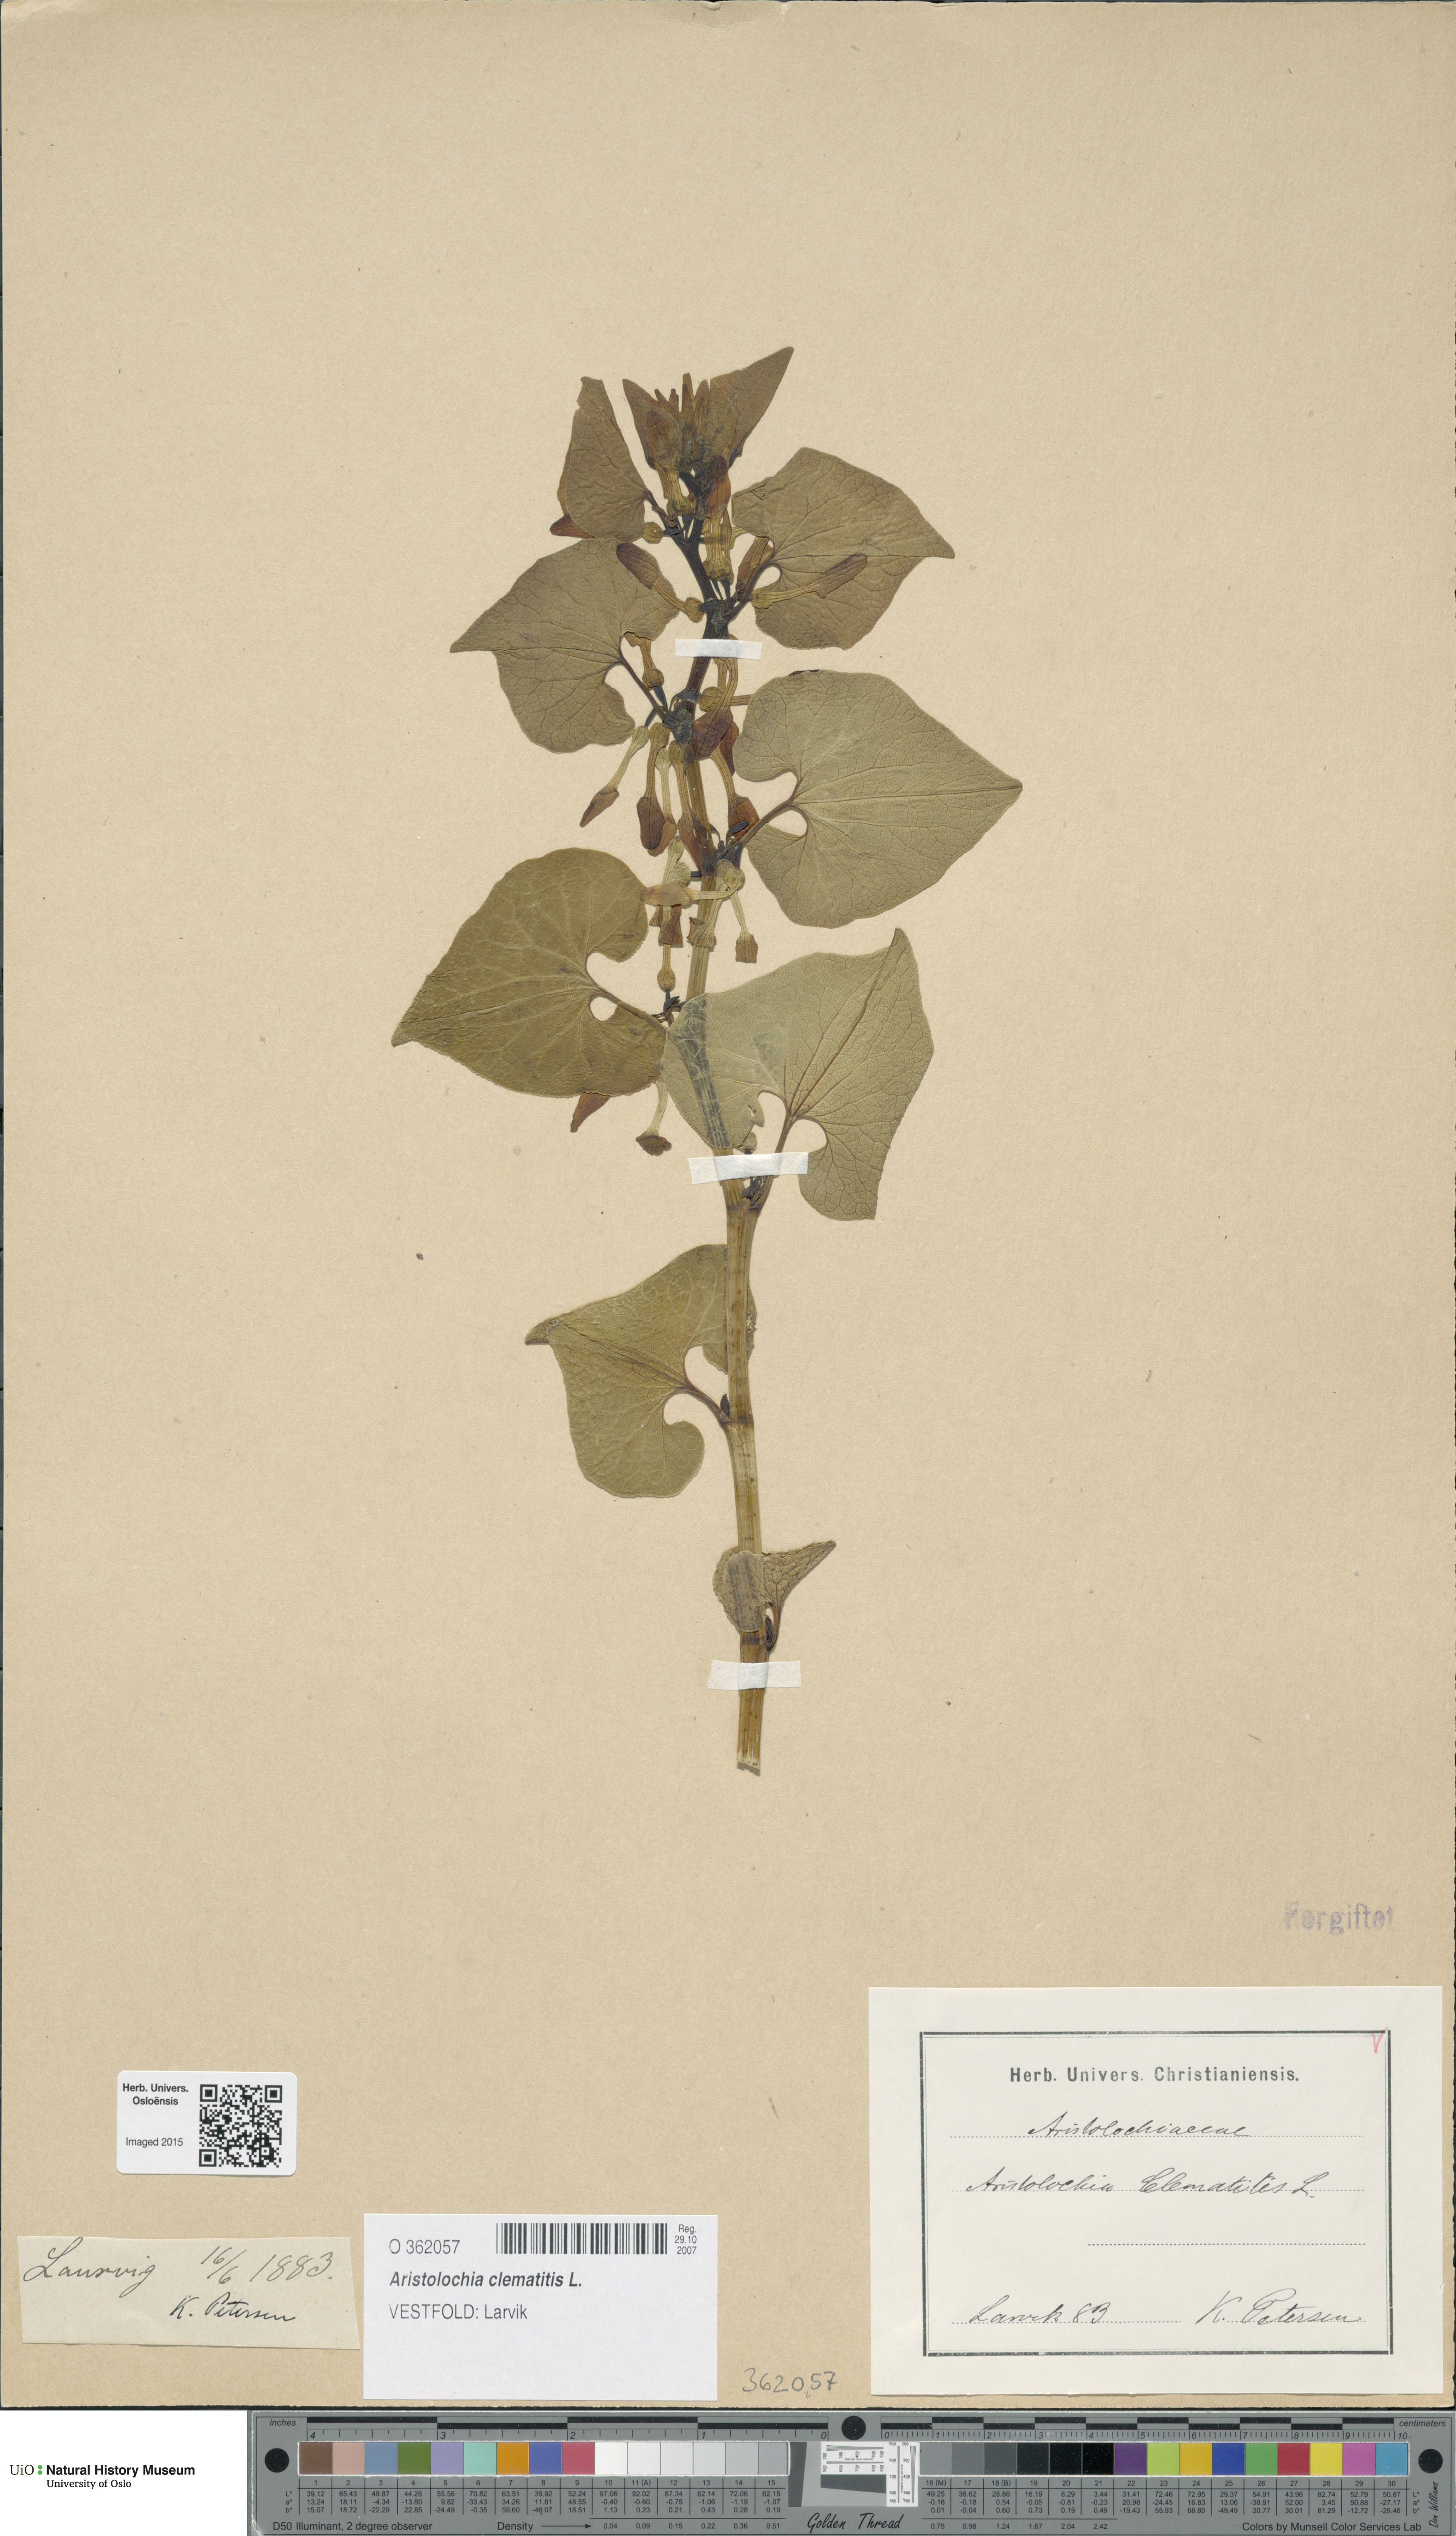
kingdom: Plantae
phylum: Tracheophyta
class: Magnoliopsida
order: Piperales
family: Aristolochiaceae
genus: Aristolochia
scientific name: Aristolochia clematitis
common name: Birthwort
